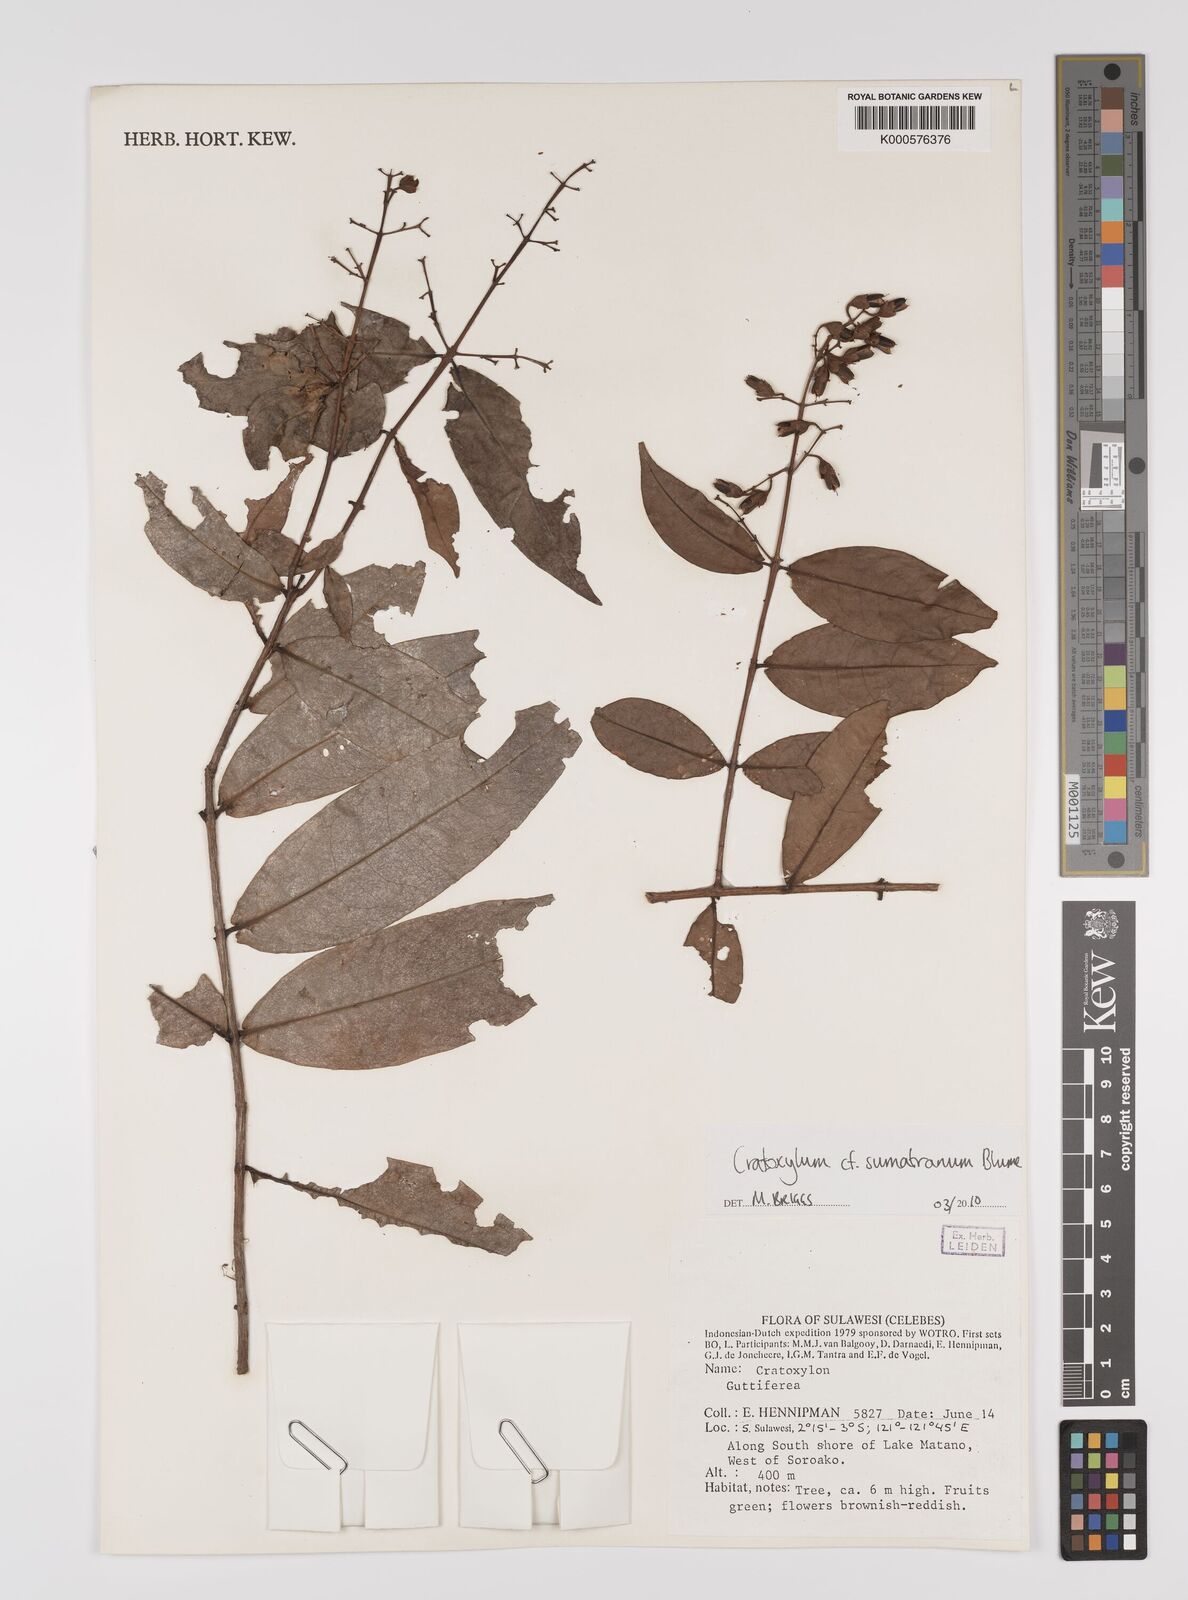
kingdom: Plantae
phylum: Tracheophyta
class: Magnoliopsida
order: Malpighiales
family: Hypericaceae
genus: Cratoxylum
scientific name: Cratoxylum sumatranum
